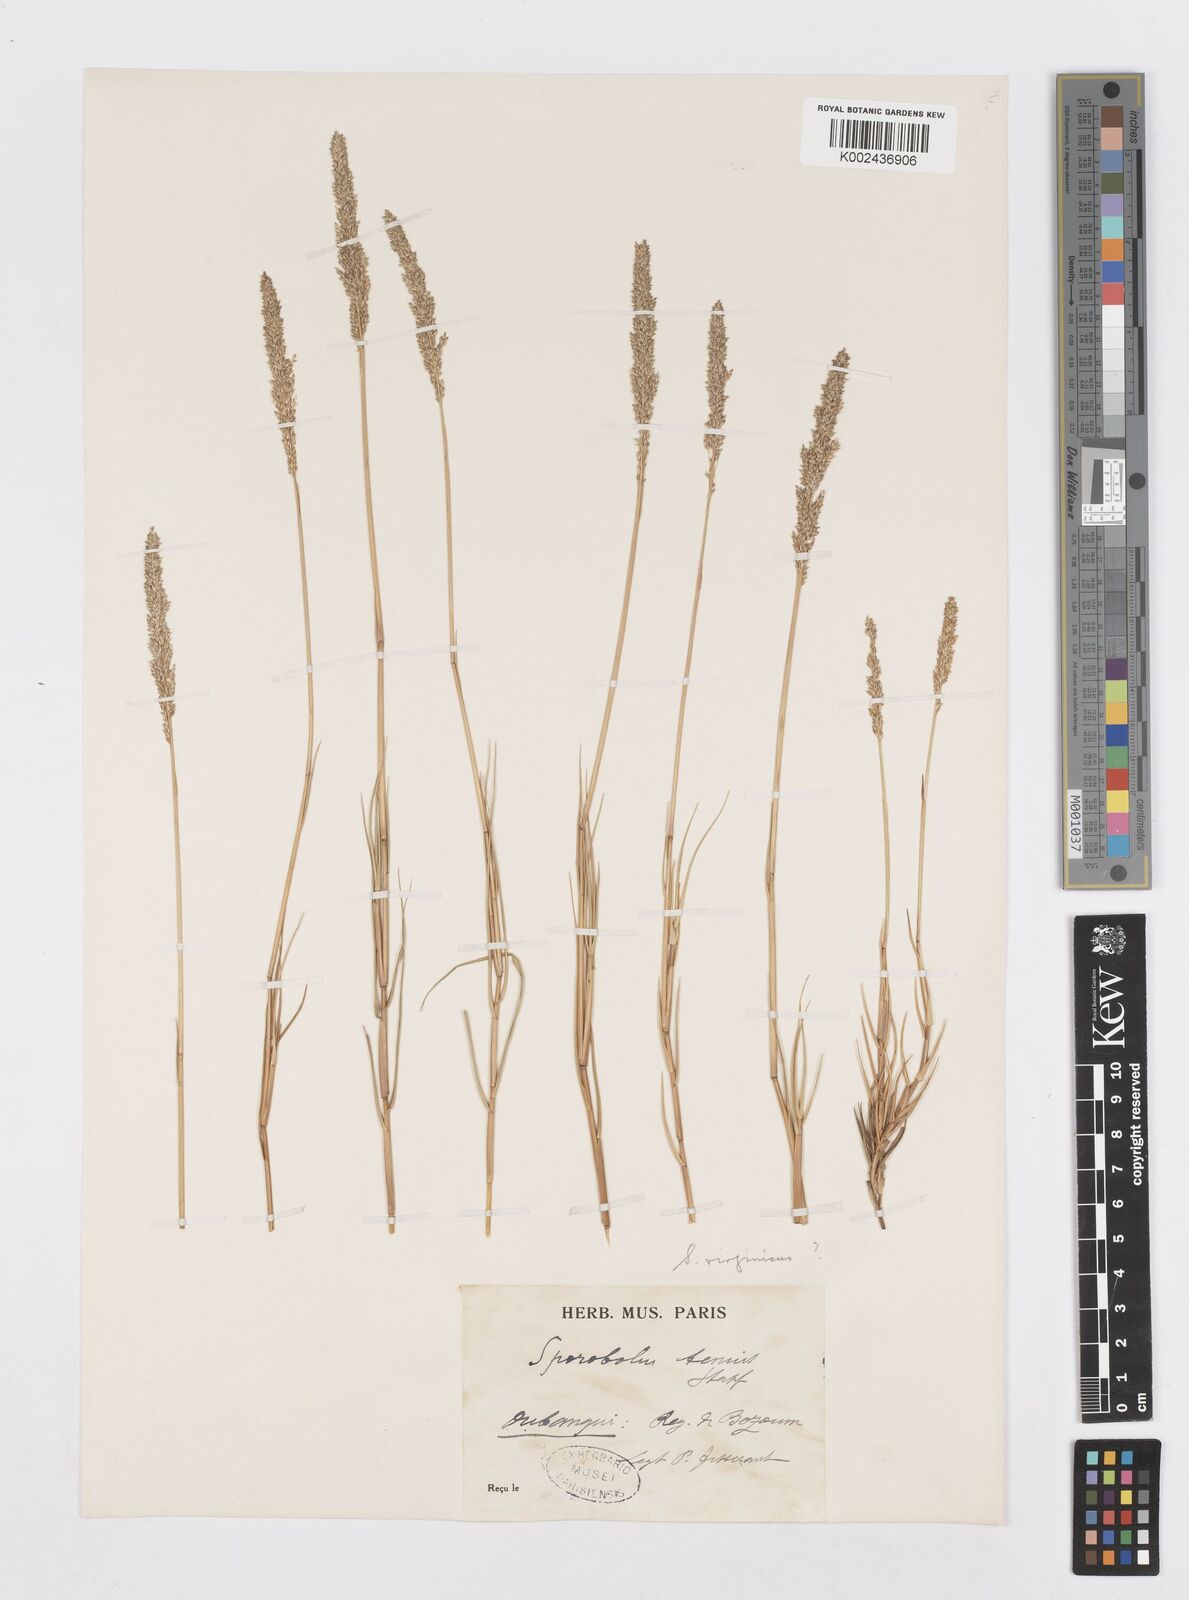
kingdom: Plantae
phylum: Tracheophyta
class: Liliopsida
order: Poales
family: Poaceae
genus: Sporobolus
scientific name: Sporobolus virginicus
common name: Beach dropseed
